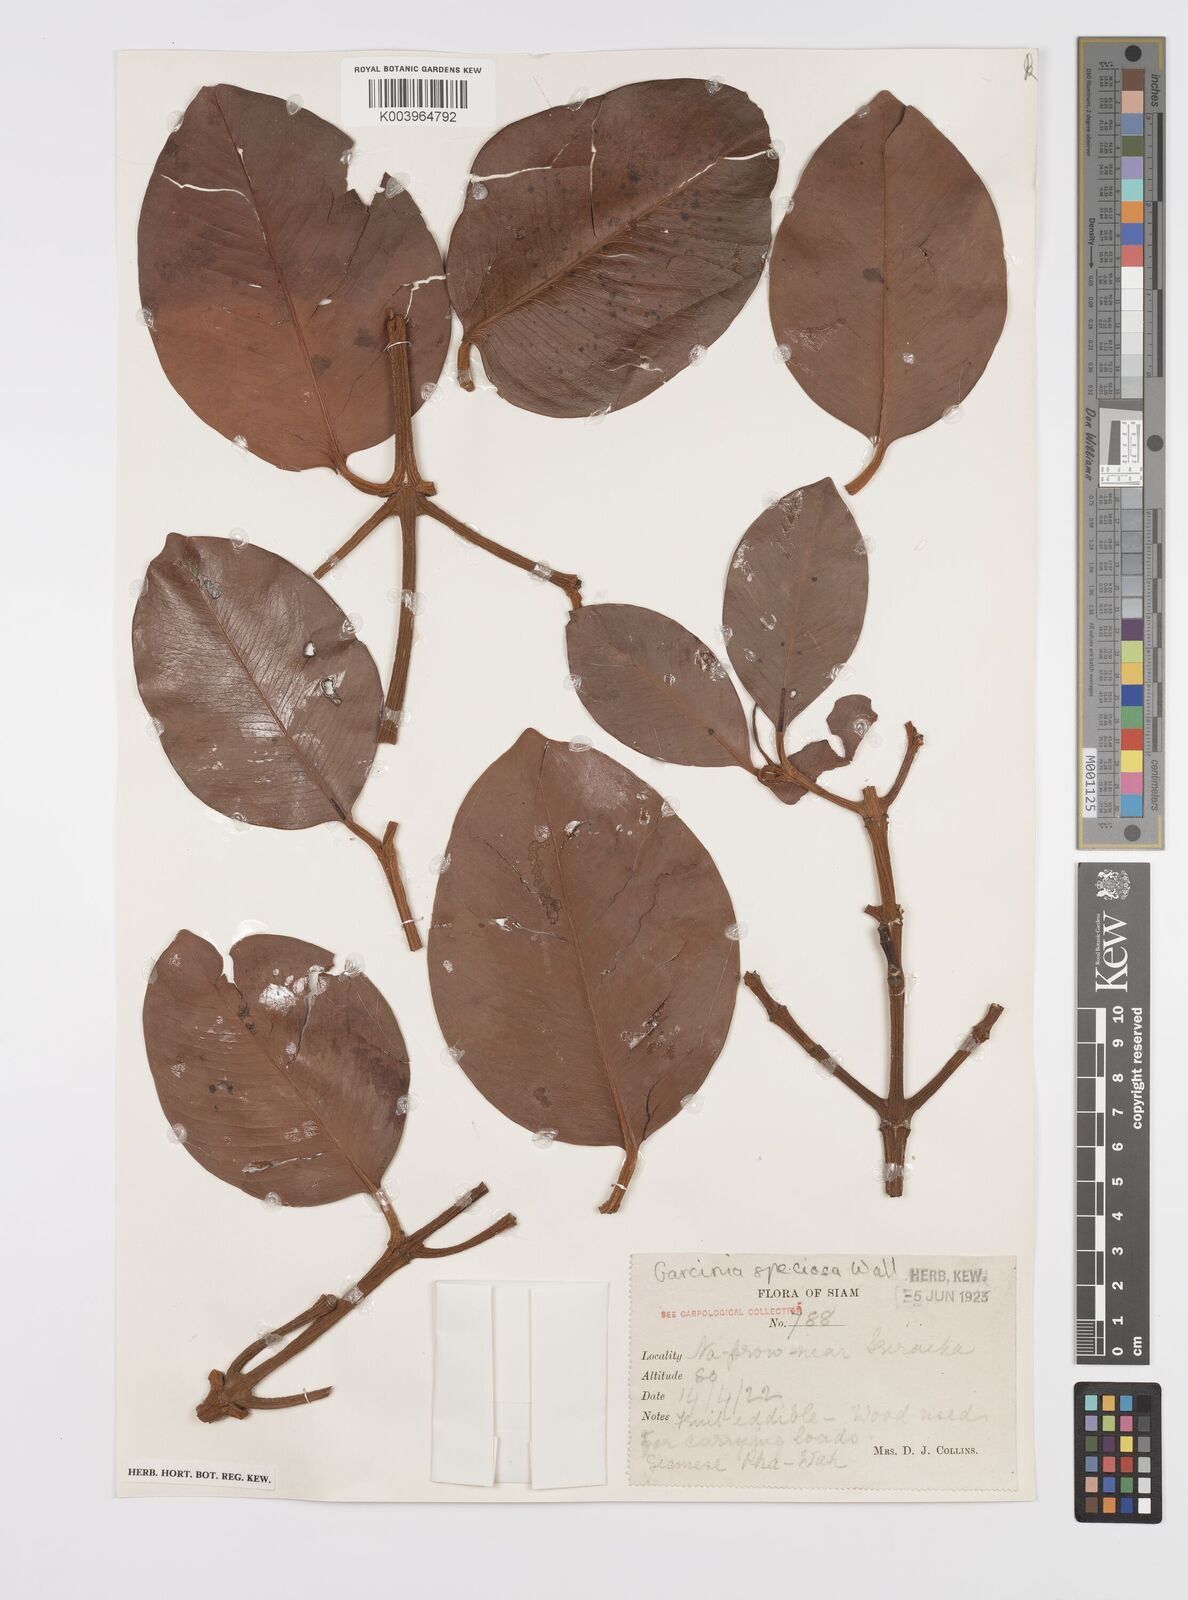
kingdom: Plantae
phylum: Tracheophyta
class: Magnoliopsida
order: Malpighiales
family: Clusiaceae
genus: Garcinia
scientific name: Garcinia celebica
